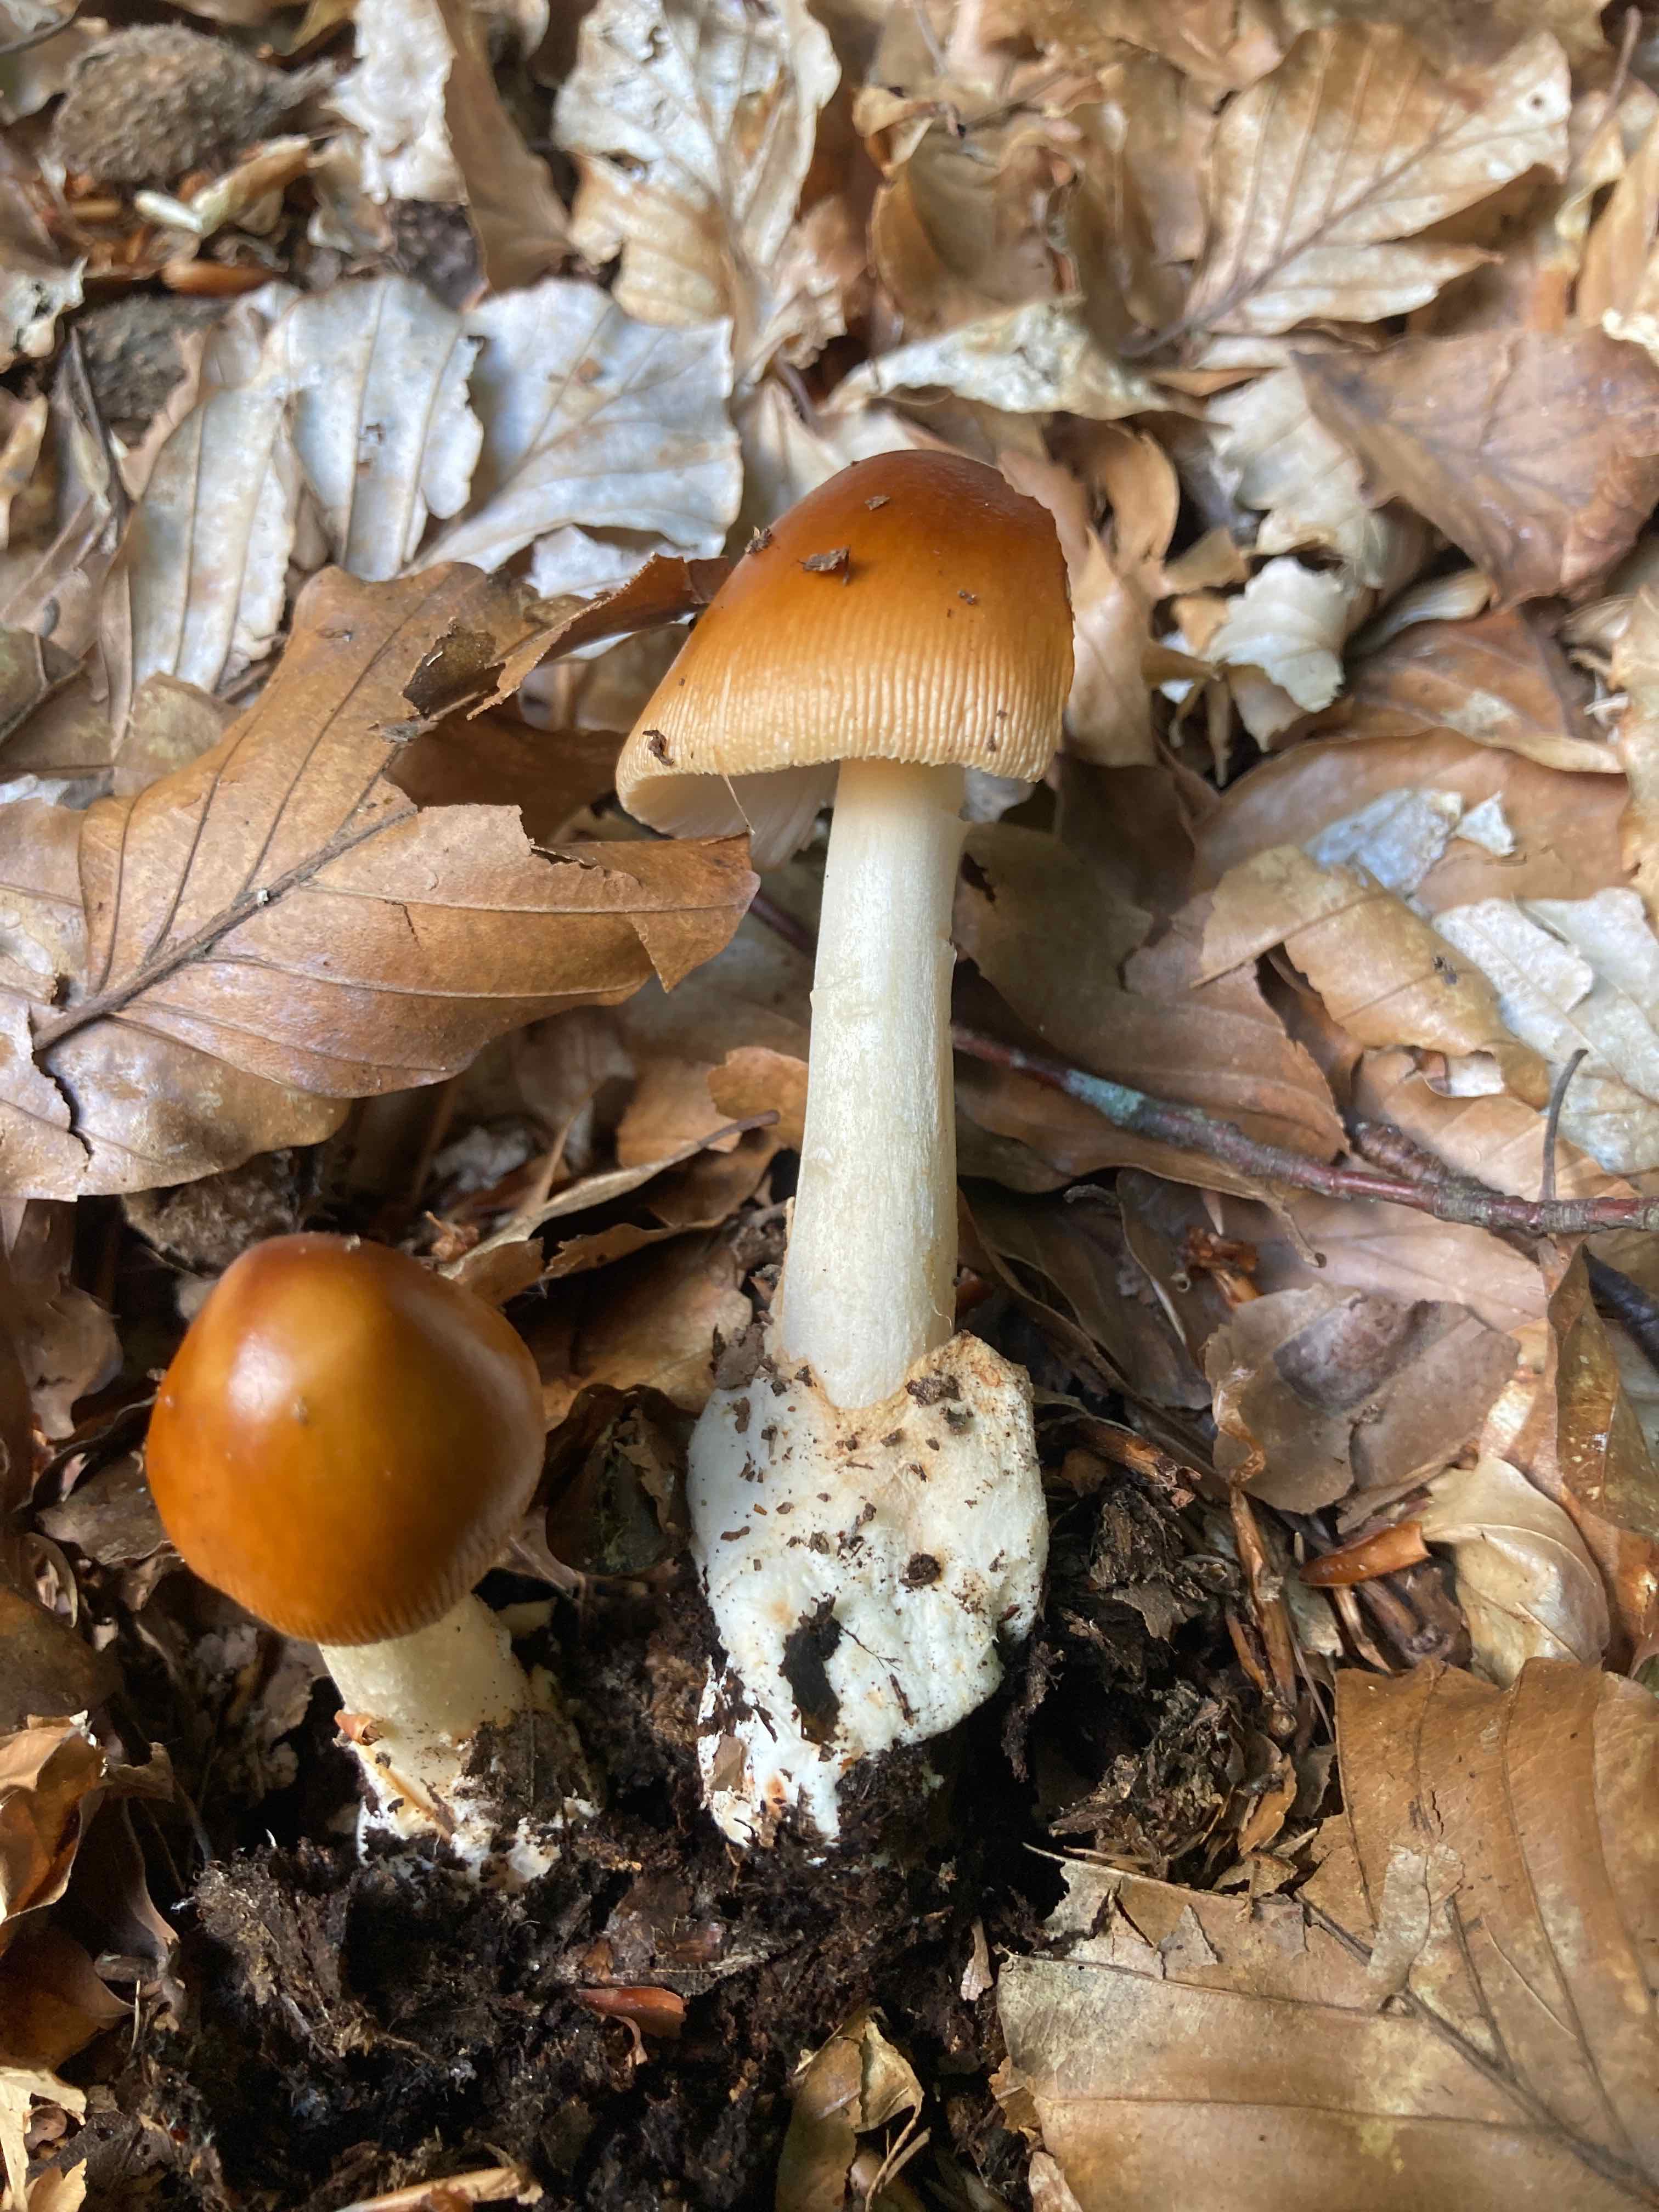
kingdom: Fungi
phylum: Basidiomycota
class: Agaricomycetes
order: Agaricales
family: Amanitaceae
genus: Amanita
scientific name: Amanita fulva
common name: brun kam-fluesvamp
